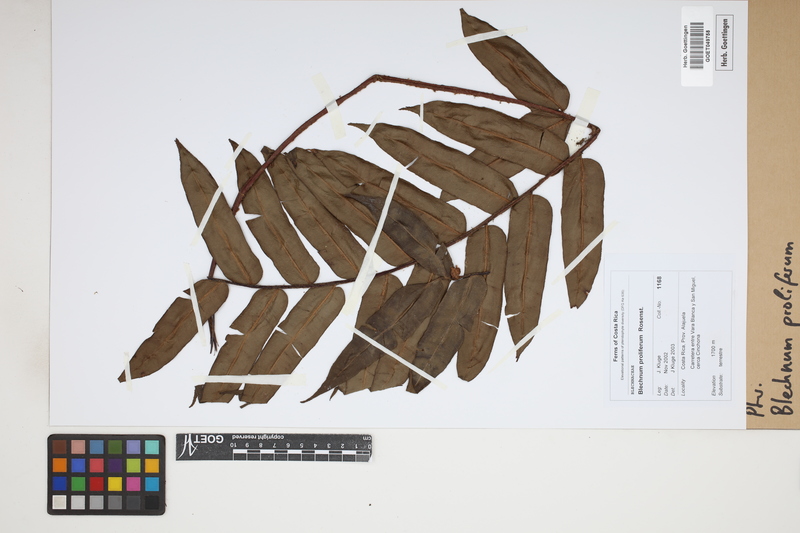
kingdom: Plantae
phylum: Tracheophyta
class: Polypodiopsida
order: Polypodiales
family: Blechnaceae
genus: Parablechnum
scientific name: Parablechnum proliferum
